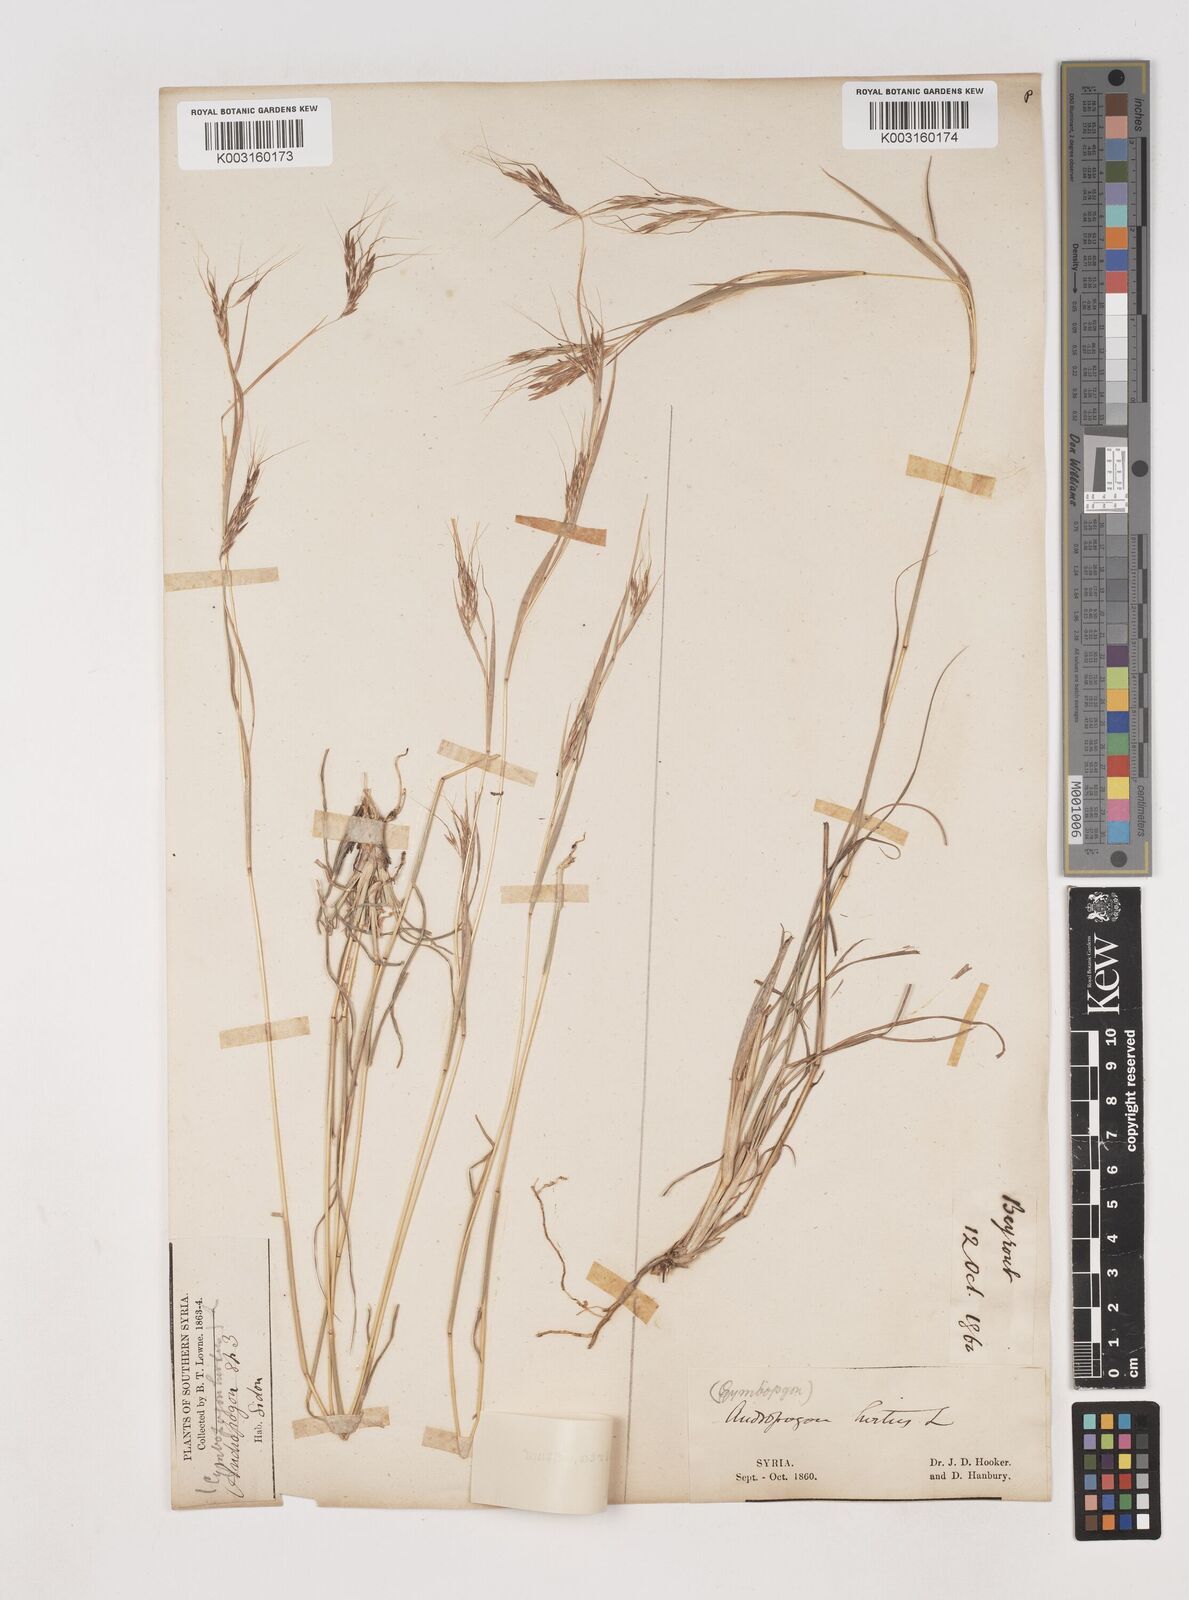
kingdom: Plantae
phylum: Tracheophyta
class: Liliopsida
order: Poales
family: Poaceae
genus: Hyparrhenia
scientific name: Hyparrhenia hirta
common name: Thatching grass
